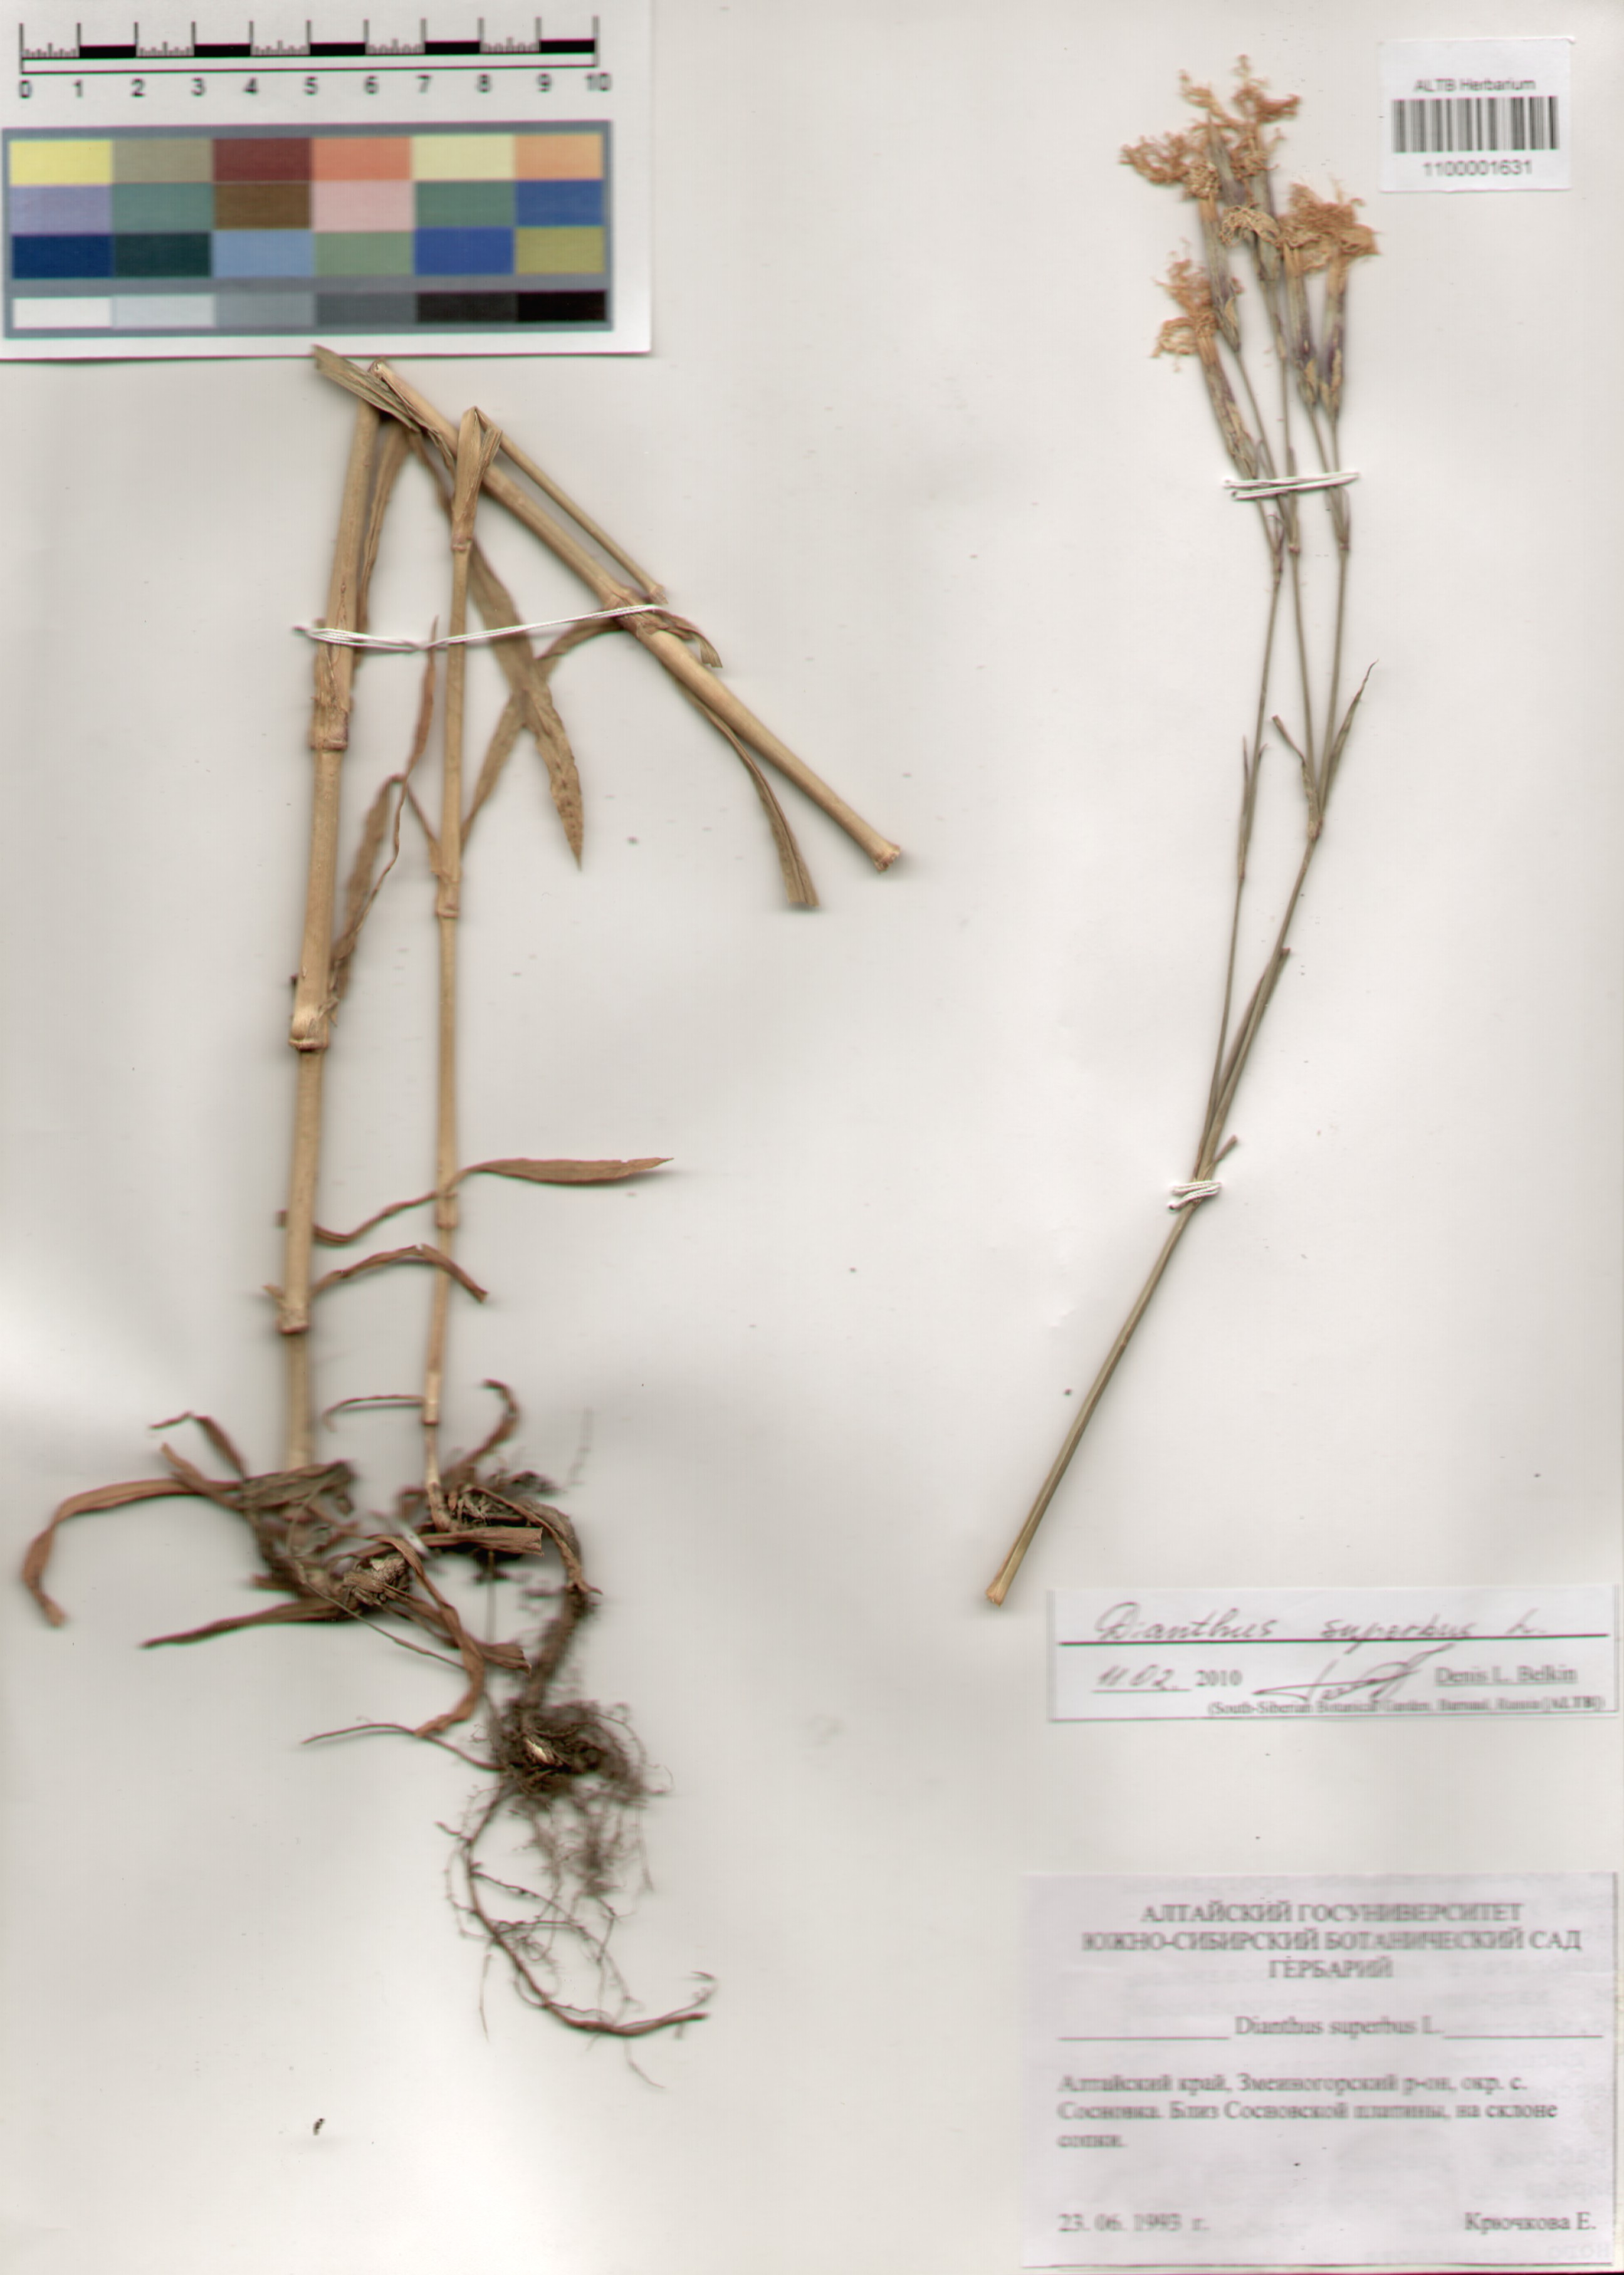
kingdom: Plantae
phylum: Tracheophyta
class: Magnoliopsida
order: Caryophyllales
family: Caryophyllaceae
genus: Dianthus
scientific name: Dianthus superbus
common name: Fringed pink
